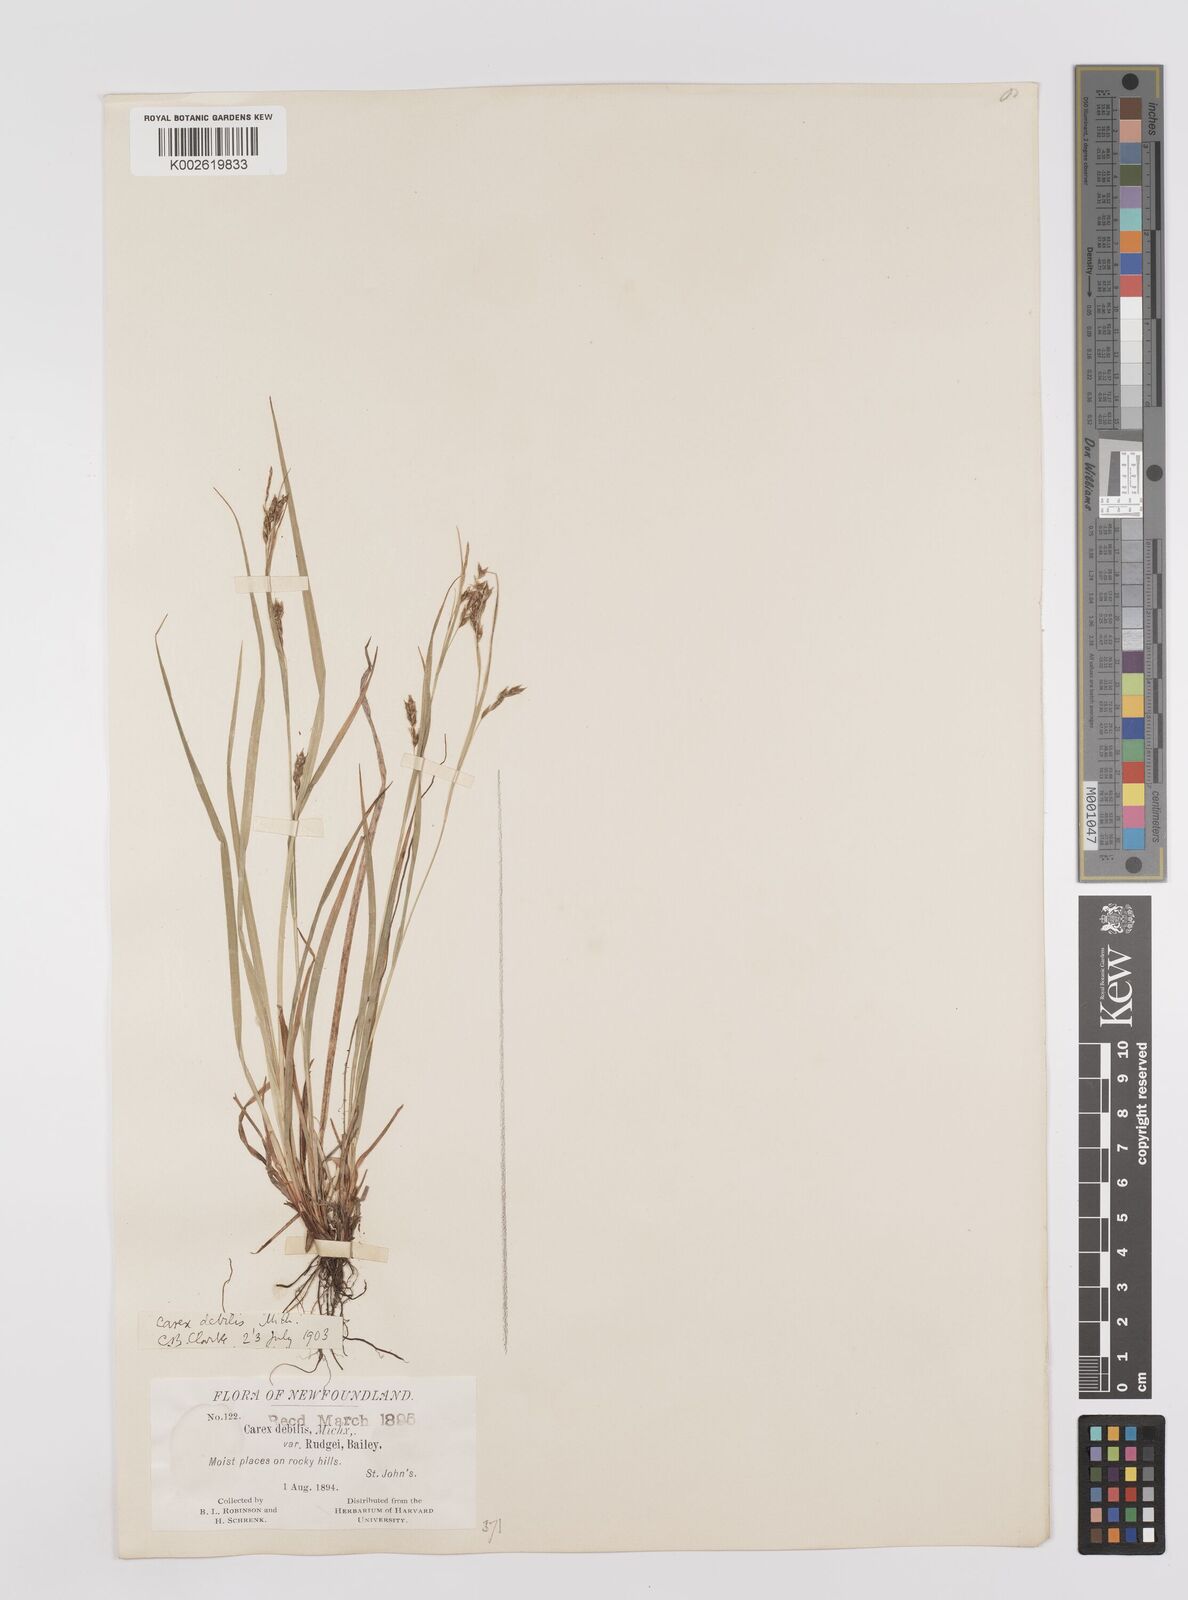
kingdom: Plantae
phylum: Tracheophyta
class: Liliopsida
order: Poales
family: Cyperaceae
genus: Carex
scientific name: Carex debilis
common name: White-edge sedge
